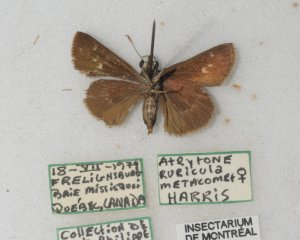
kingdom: Animalia
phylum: Arthropoda
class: Insecta
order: Lepidoptera
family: Hesperiidae
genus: Polites
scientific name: Polites egeremet
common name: Northern Broken-Dash
